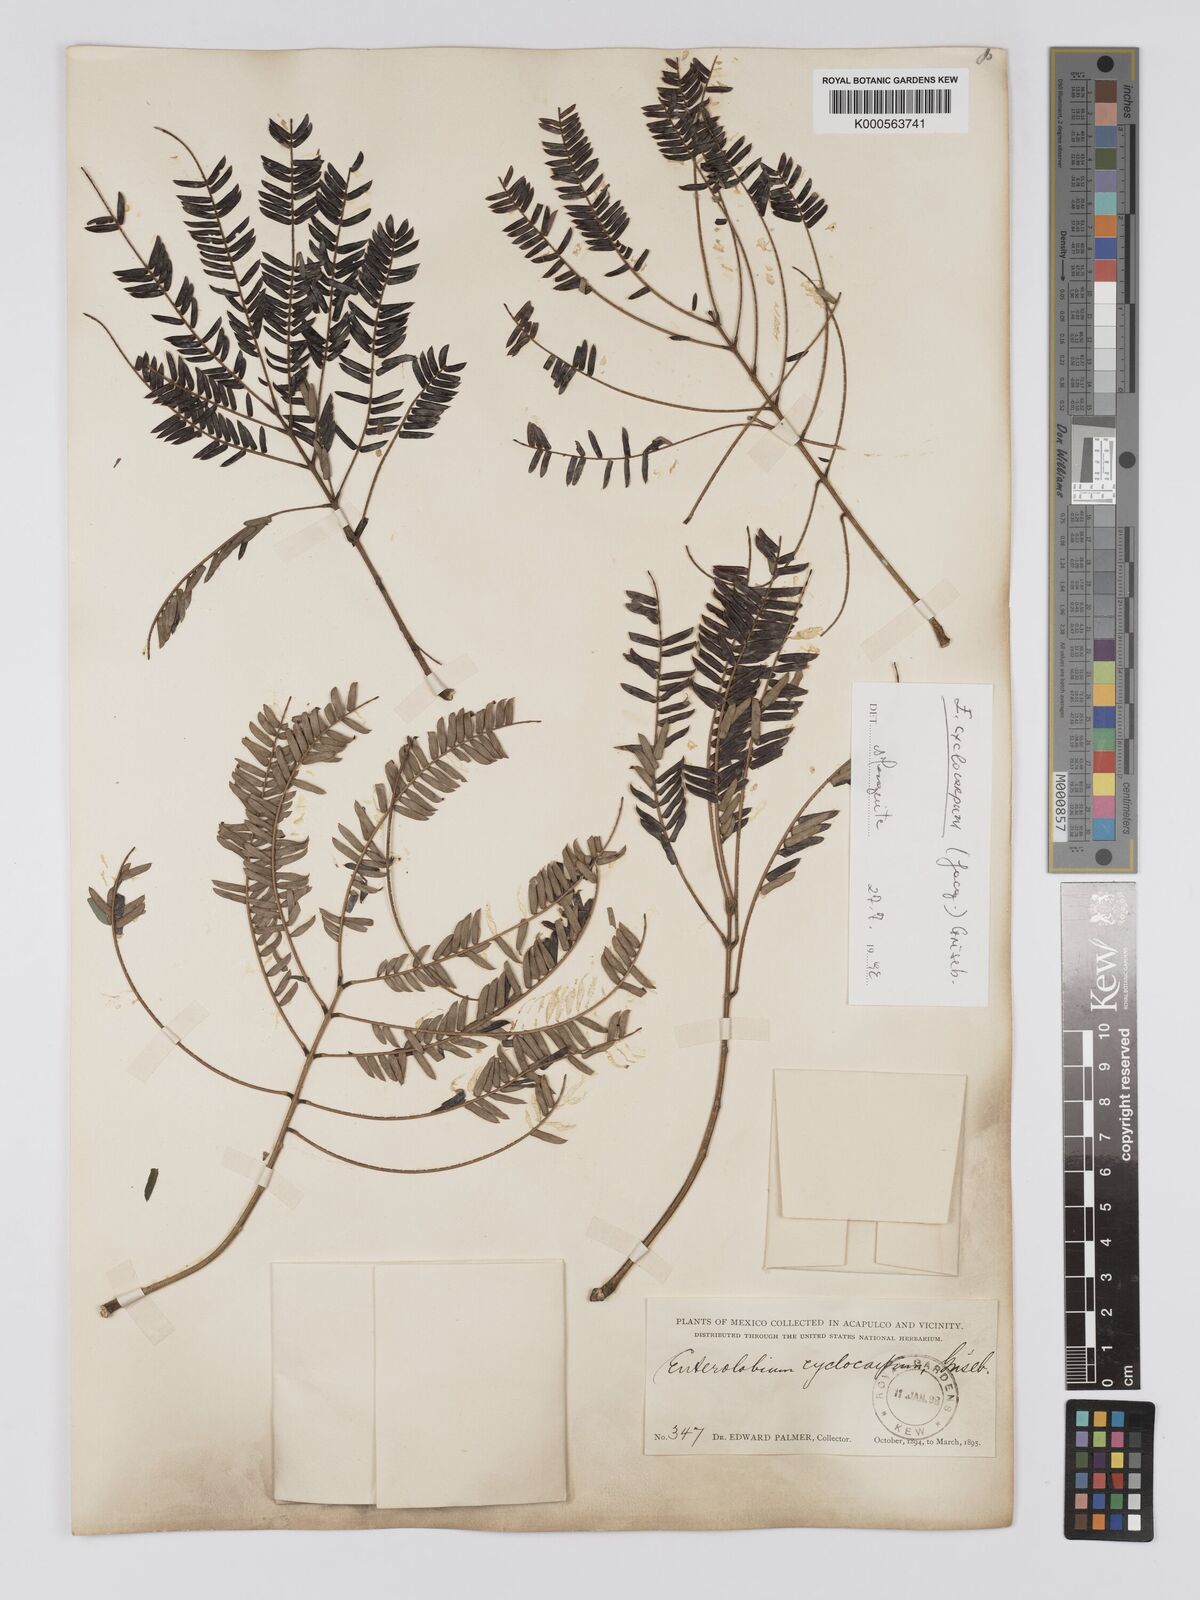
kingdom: Plantae
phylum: Tracheophyta
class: Magnoliopsida
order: Fabales
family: Fabaceae
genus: Enterolobium
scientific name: Enterolobium cyclocarpum
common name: Ear tree
